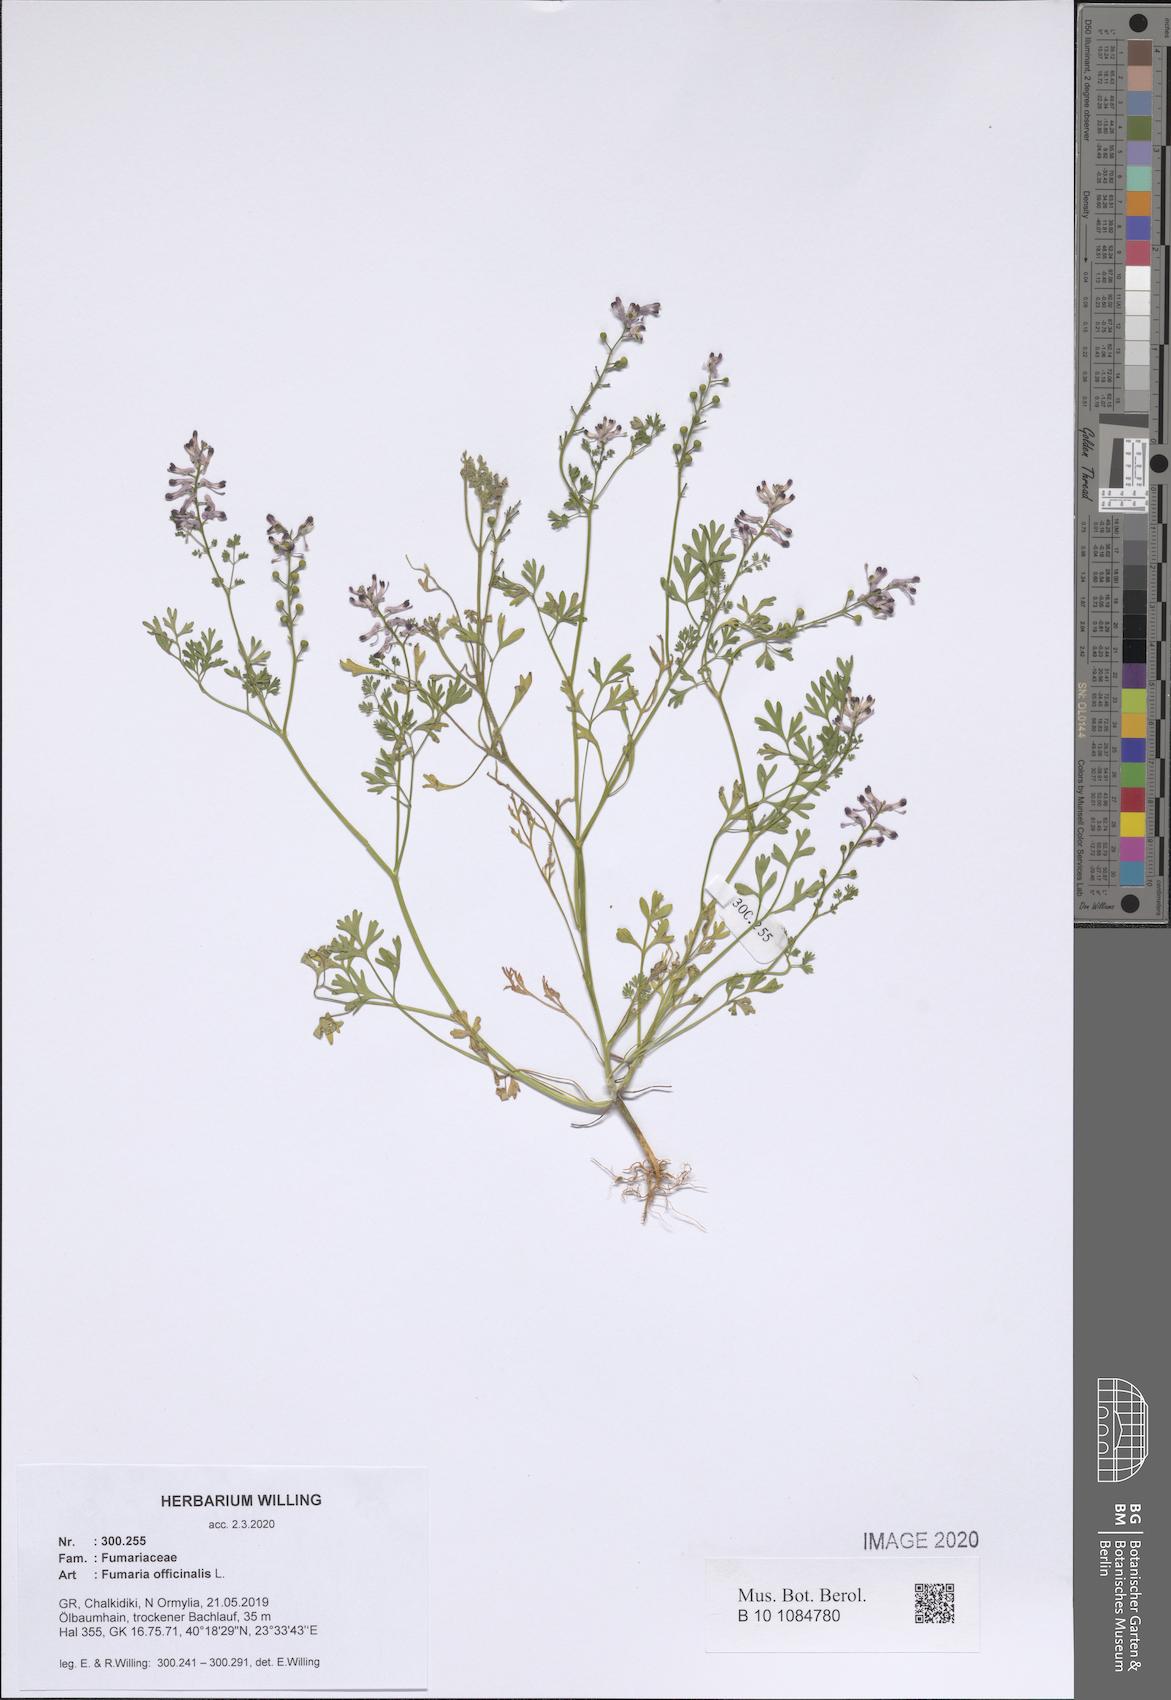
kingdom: Plantae
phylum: Tracheophyta
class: Magnoliopsida
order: Ranunculales
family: Papaveraceae
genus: Fumaria
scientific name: Fumaria officinalis
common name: Common fumitory
